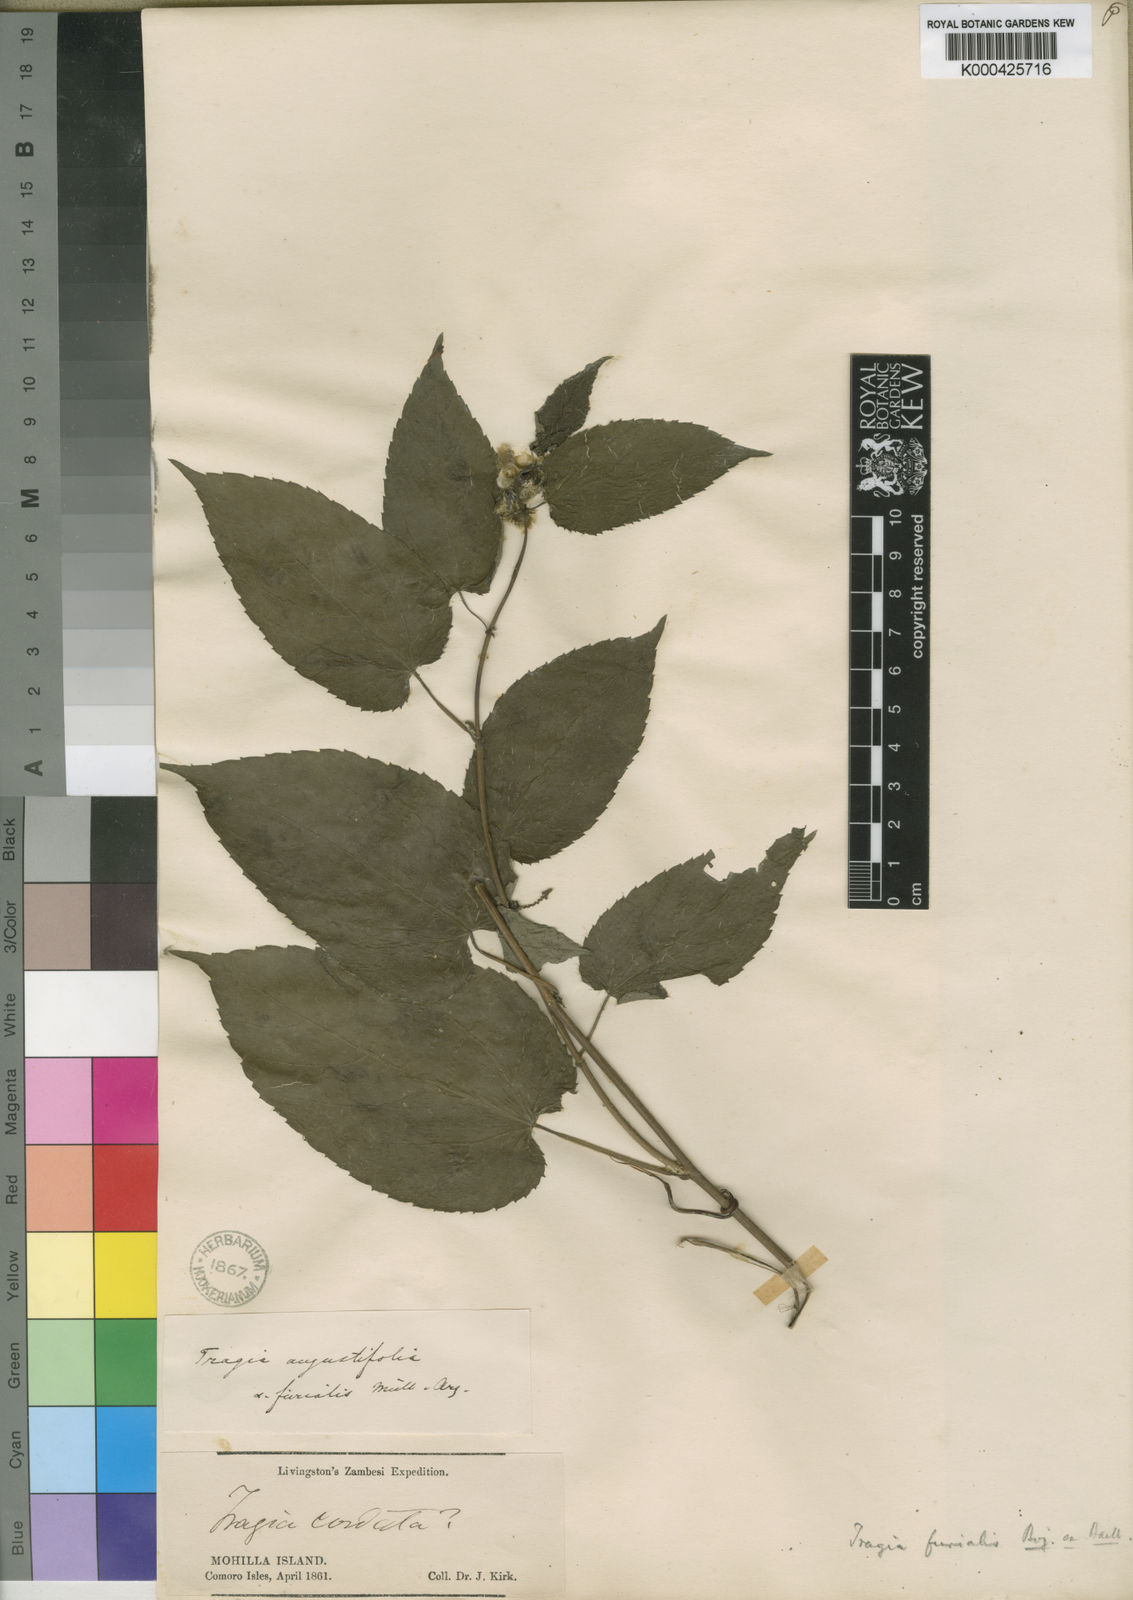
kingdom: Plantae
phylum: Tracheophyta
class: Magnoliopsida
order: Malpighiales
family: Euphorbiaceae
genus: Tragia
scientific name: Tragia furialis
